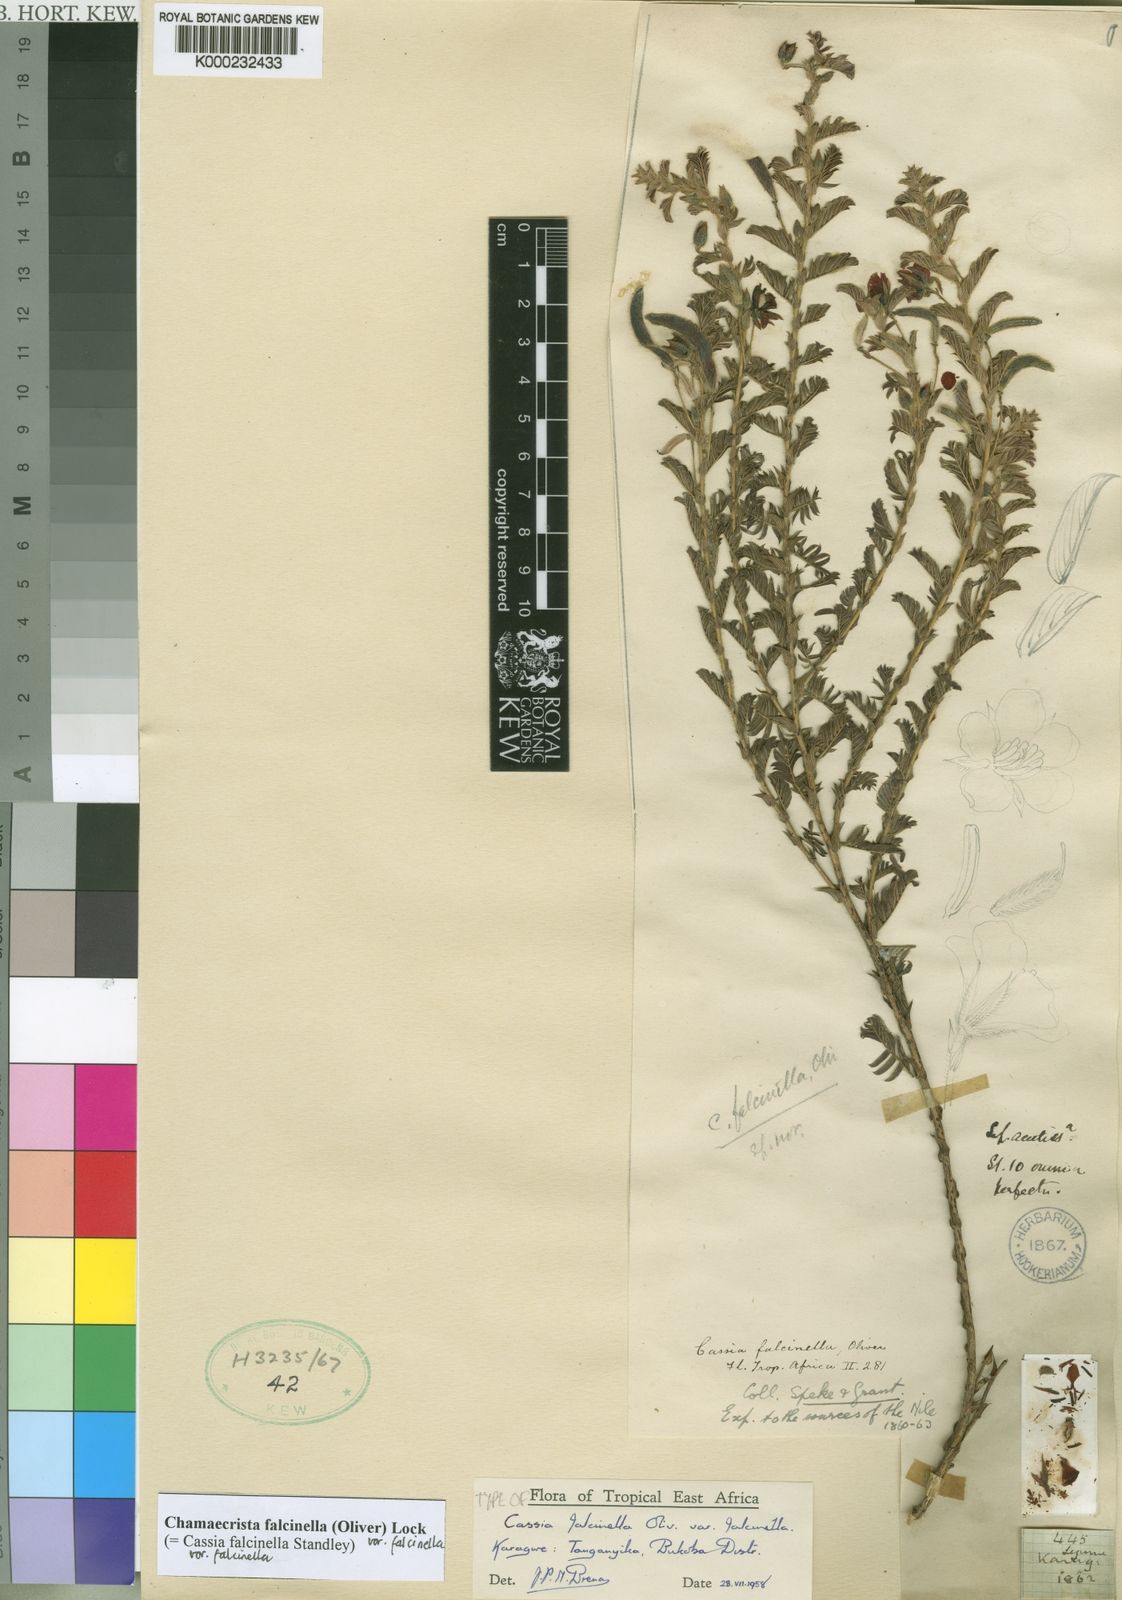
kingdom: Plantae
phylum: Tracheophyta
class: Magnoliopsida
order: Fabales
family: Fabaceae
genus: Chamaecrista
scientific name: Chamaecrista falcinella
